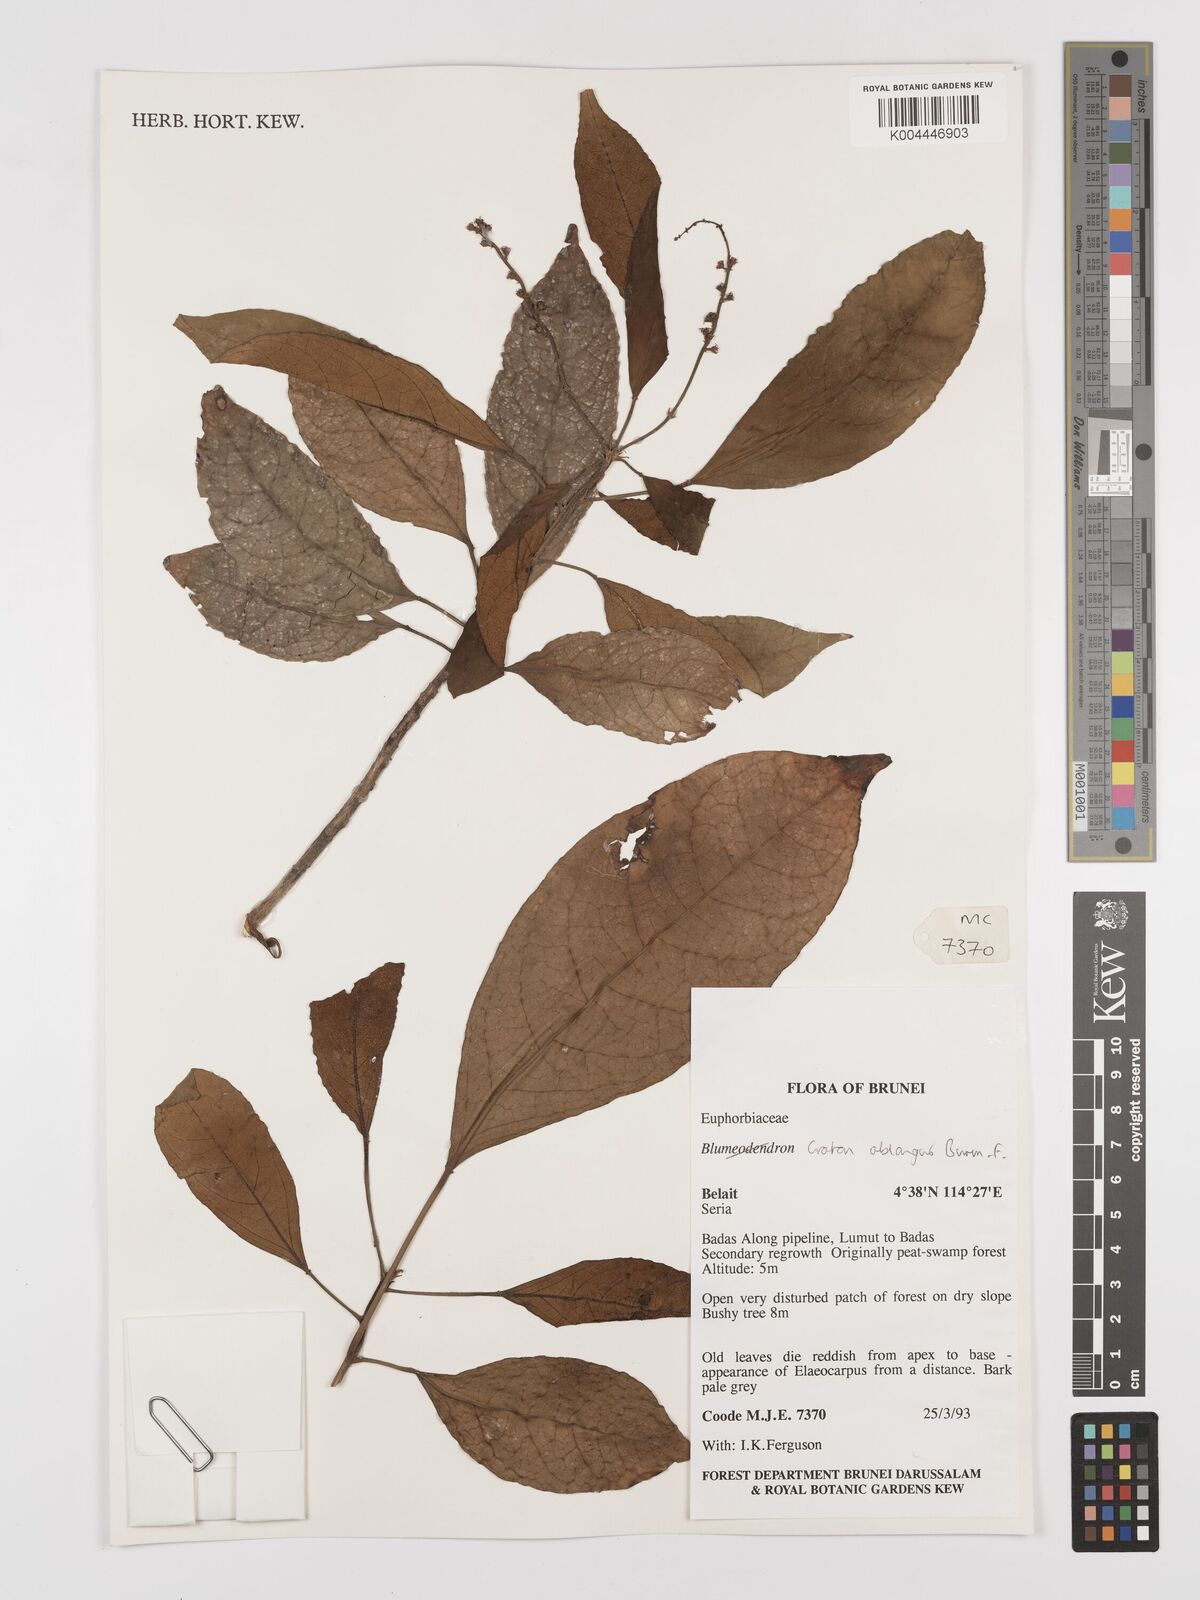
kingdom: Plantae
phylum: Tracheophyta
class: Magnoliopsida
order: Malpighiales
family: Euphorbiaceae
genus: Croton
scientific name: Croton oblongus
